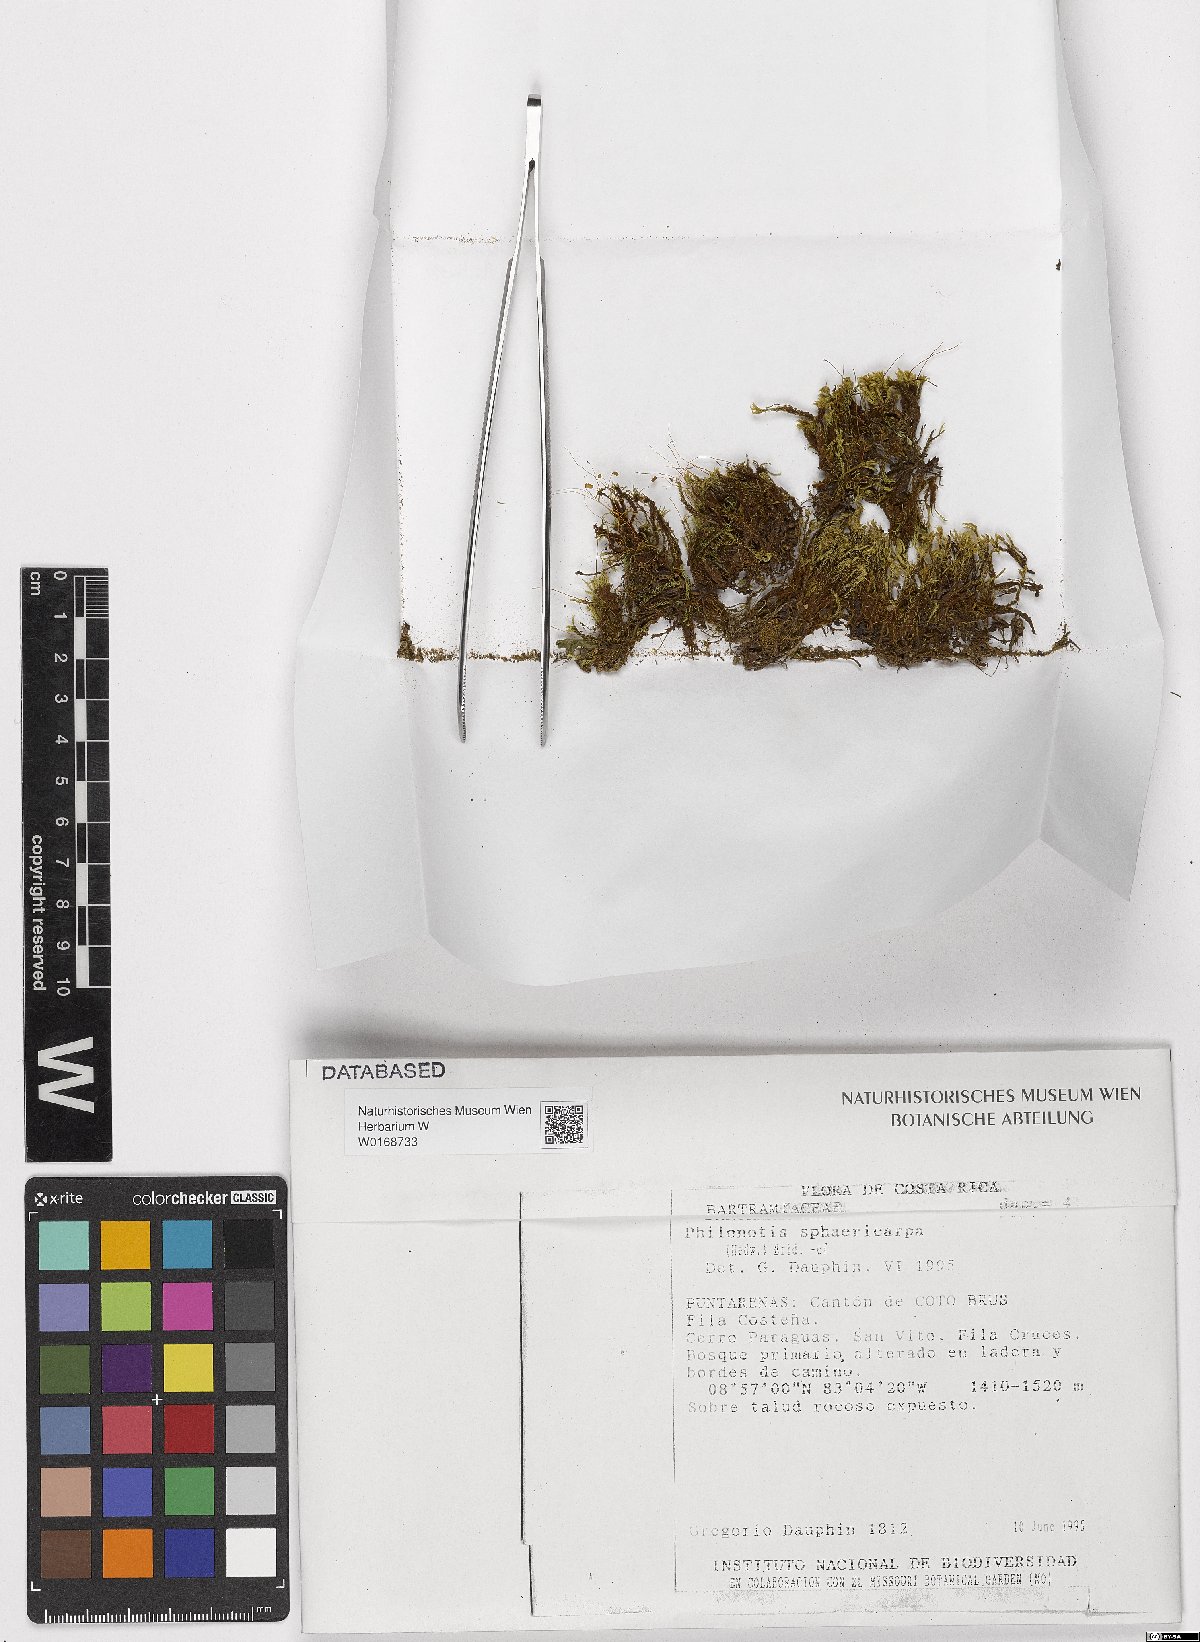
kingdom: Plantae
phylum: Bryophyta
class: Bryopsida
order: Bartramiales
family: Bartramiaceae
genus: Philonotis
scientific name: Philonotis sphaericarpa
